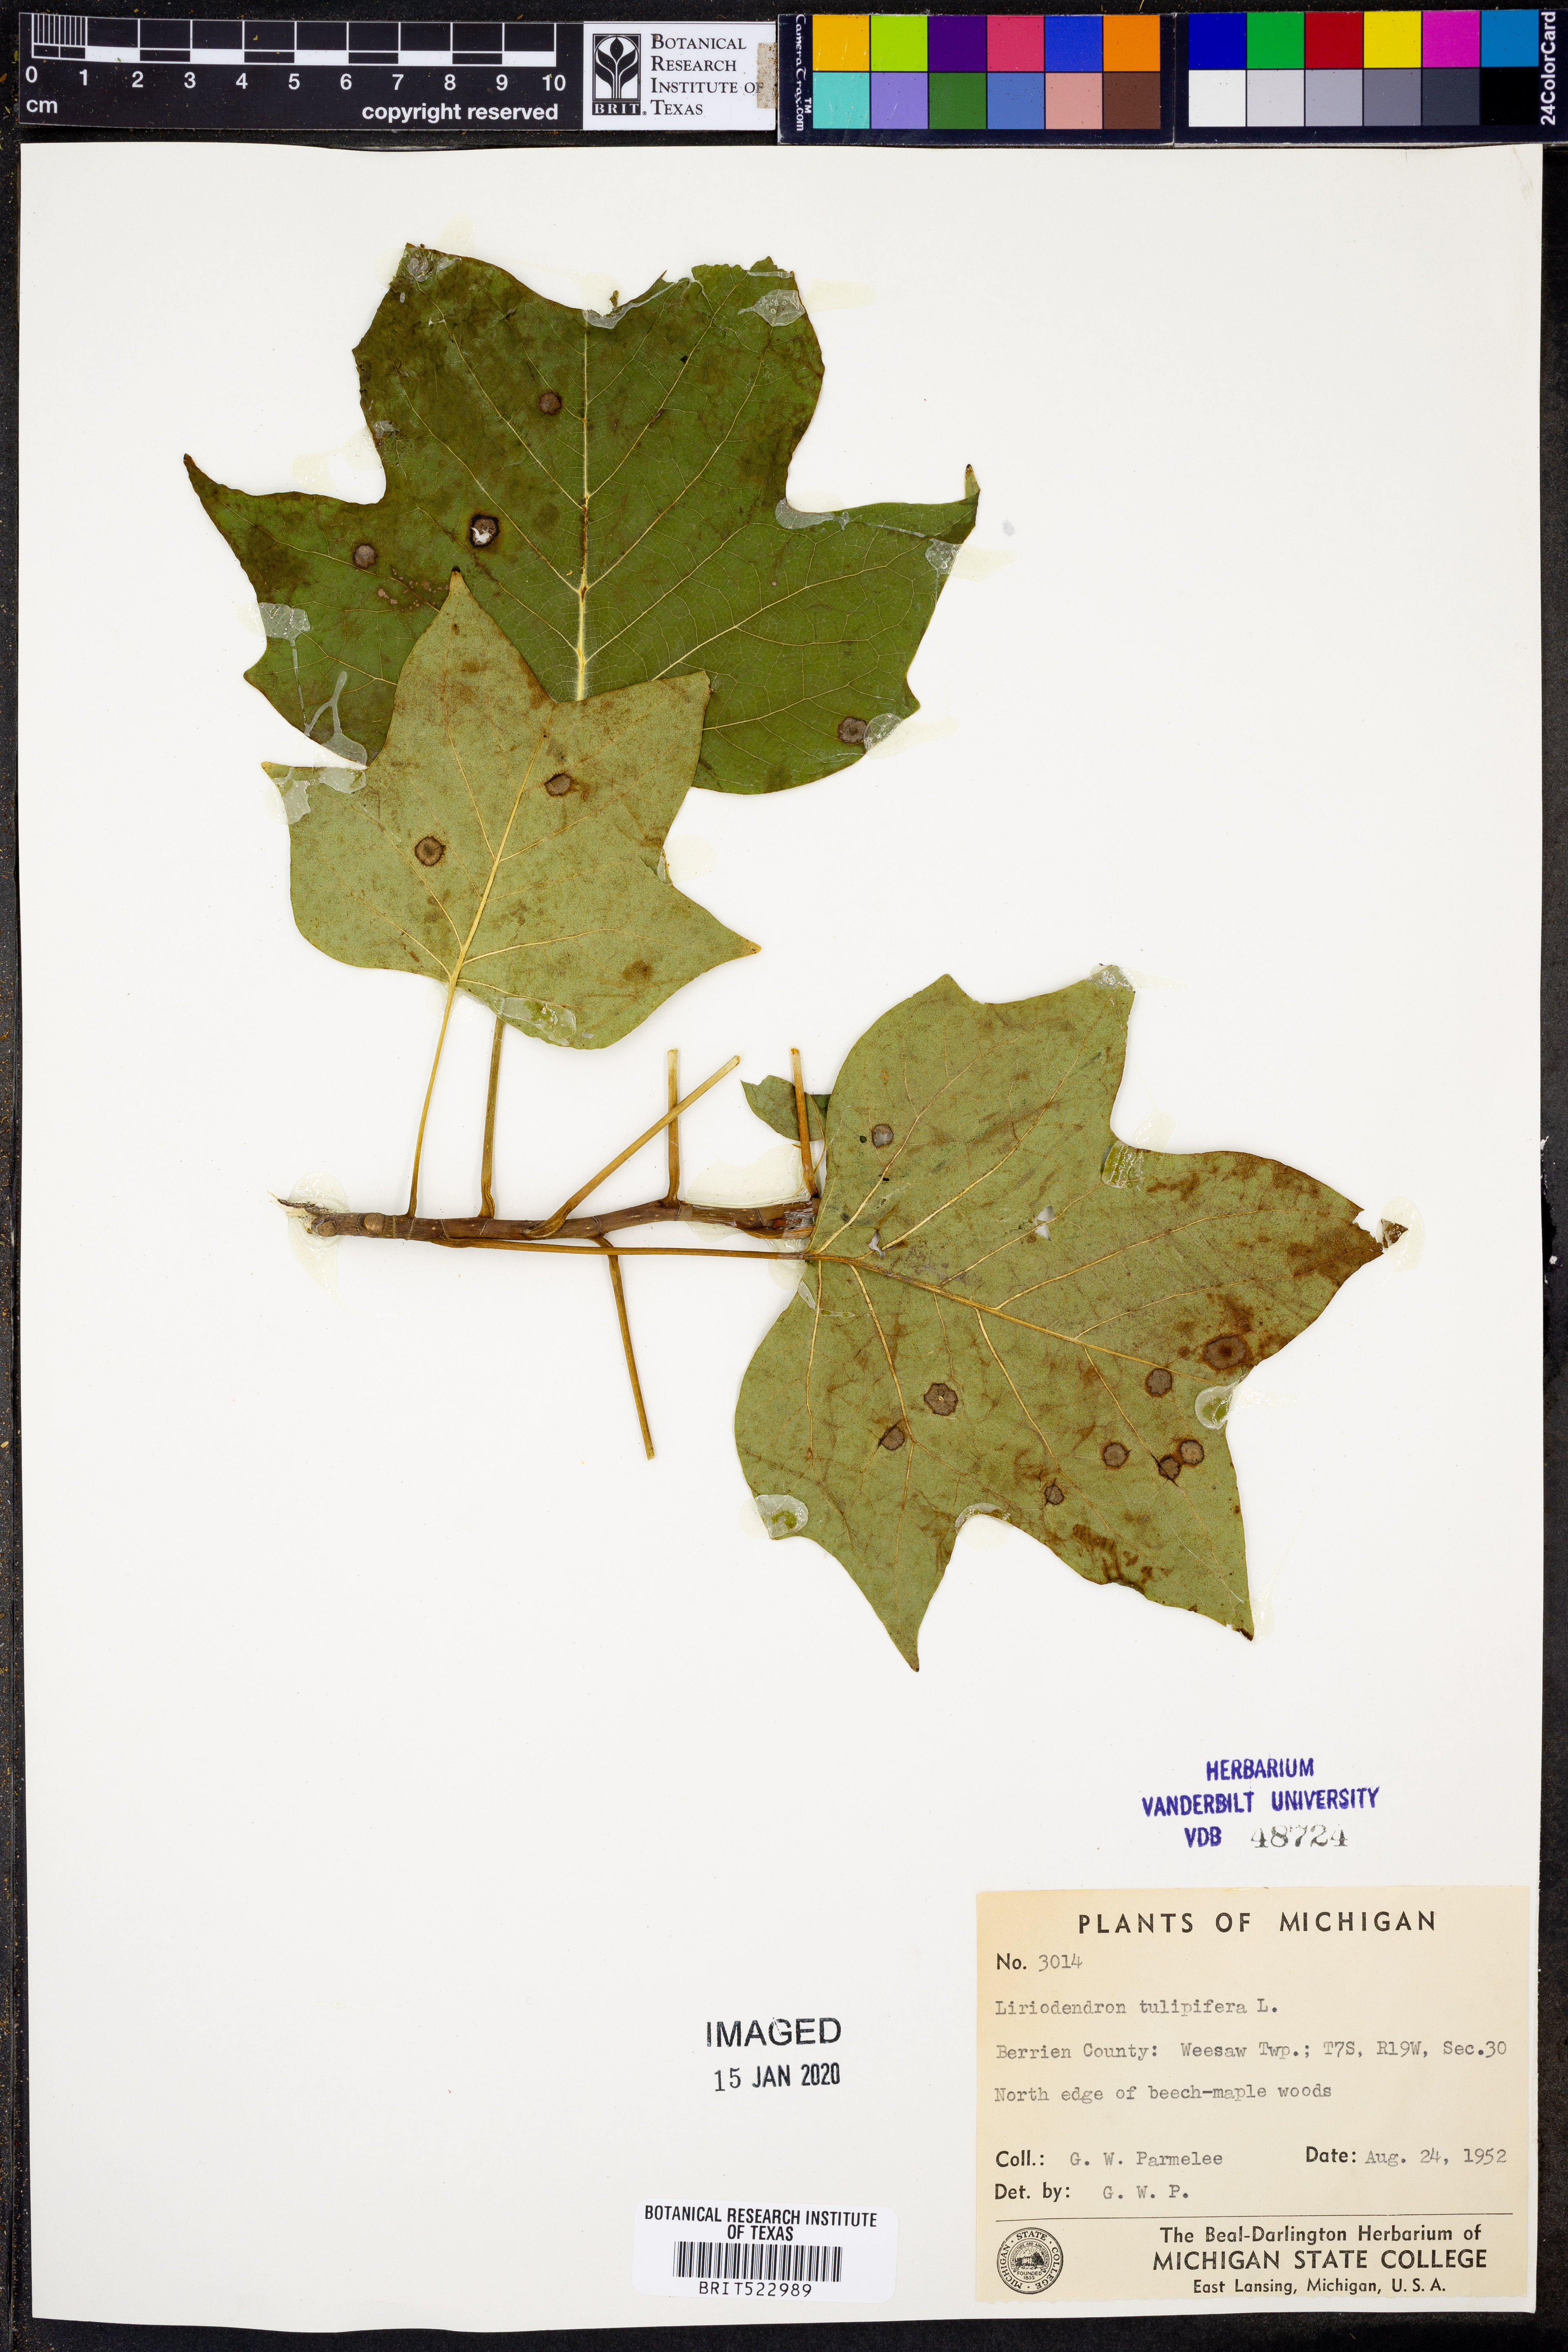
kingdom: Plantae
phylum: Tracheophyta
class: Magnoliopsida
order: Magnoliales
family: Magnoliaceae
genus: Liriodendron
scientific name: Liriodendron tulipifera
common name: Tulip tree
